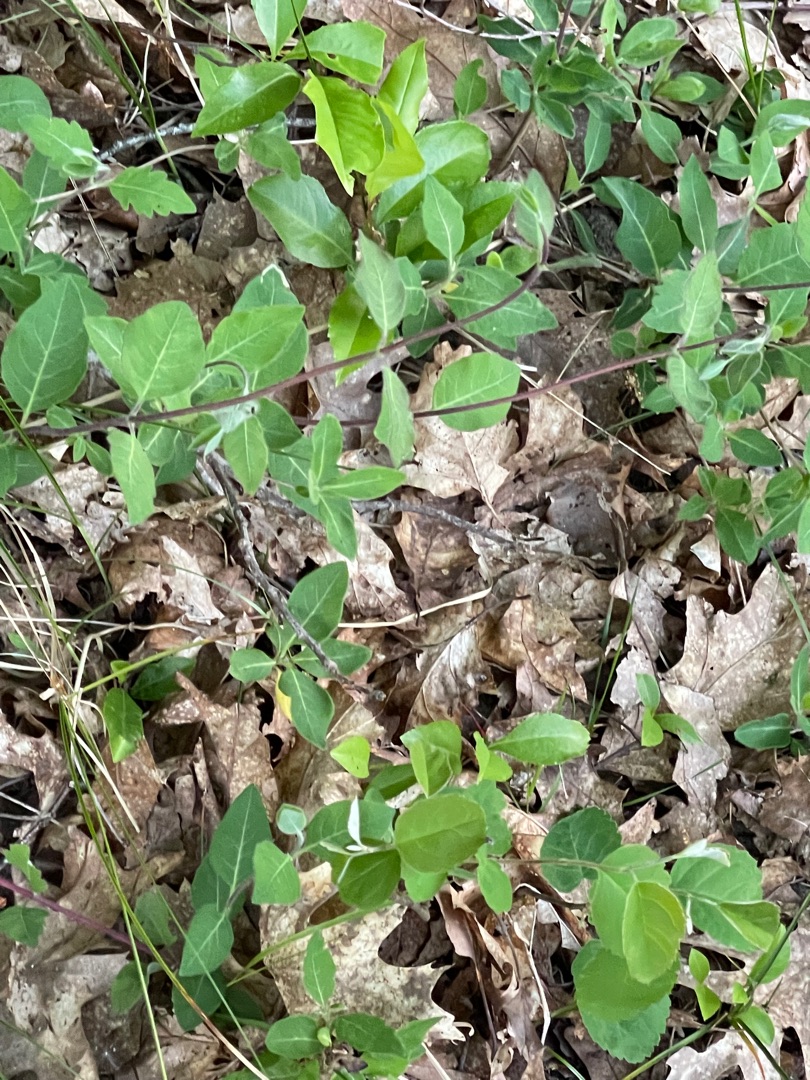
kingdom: Plantae
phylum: Tracheophyta
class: Magnoliopsida
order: Dipsacales
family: Caprifoliaceae
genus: Lonicera
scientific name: Lonicera periclymenum
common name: Almindelig gedeblad
